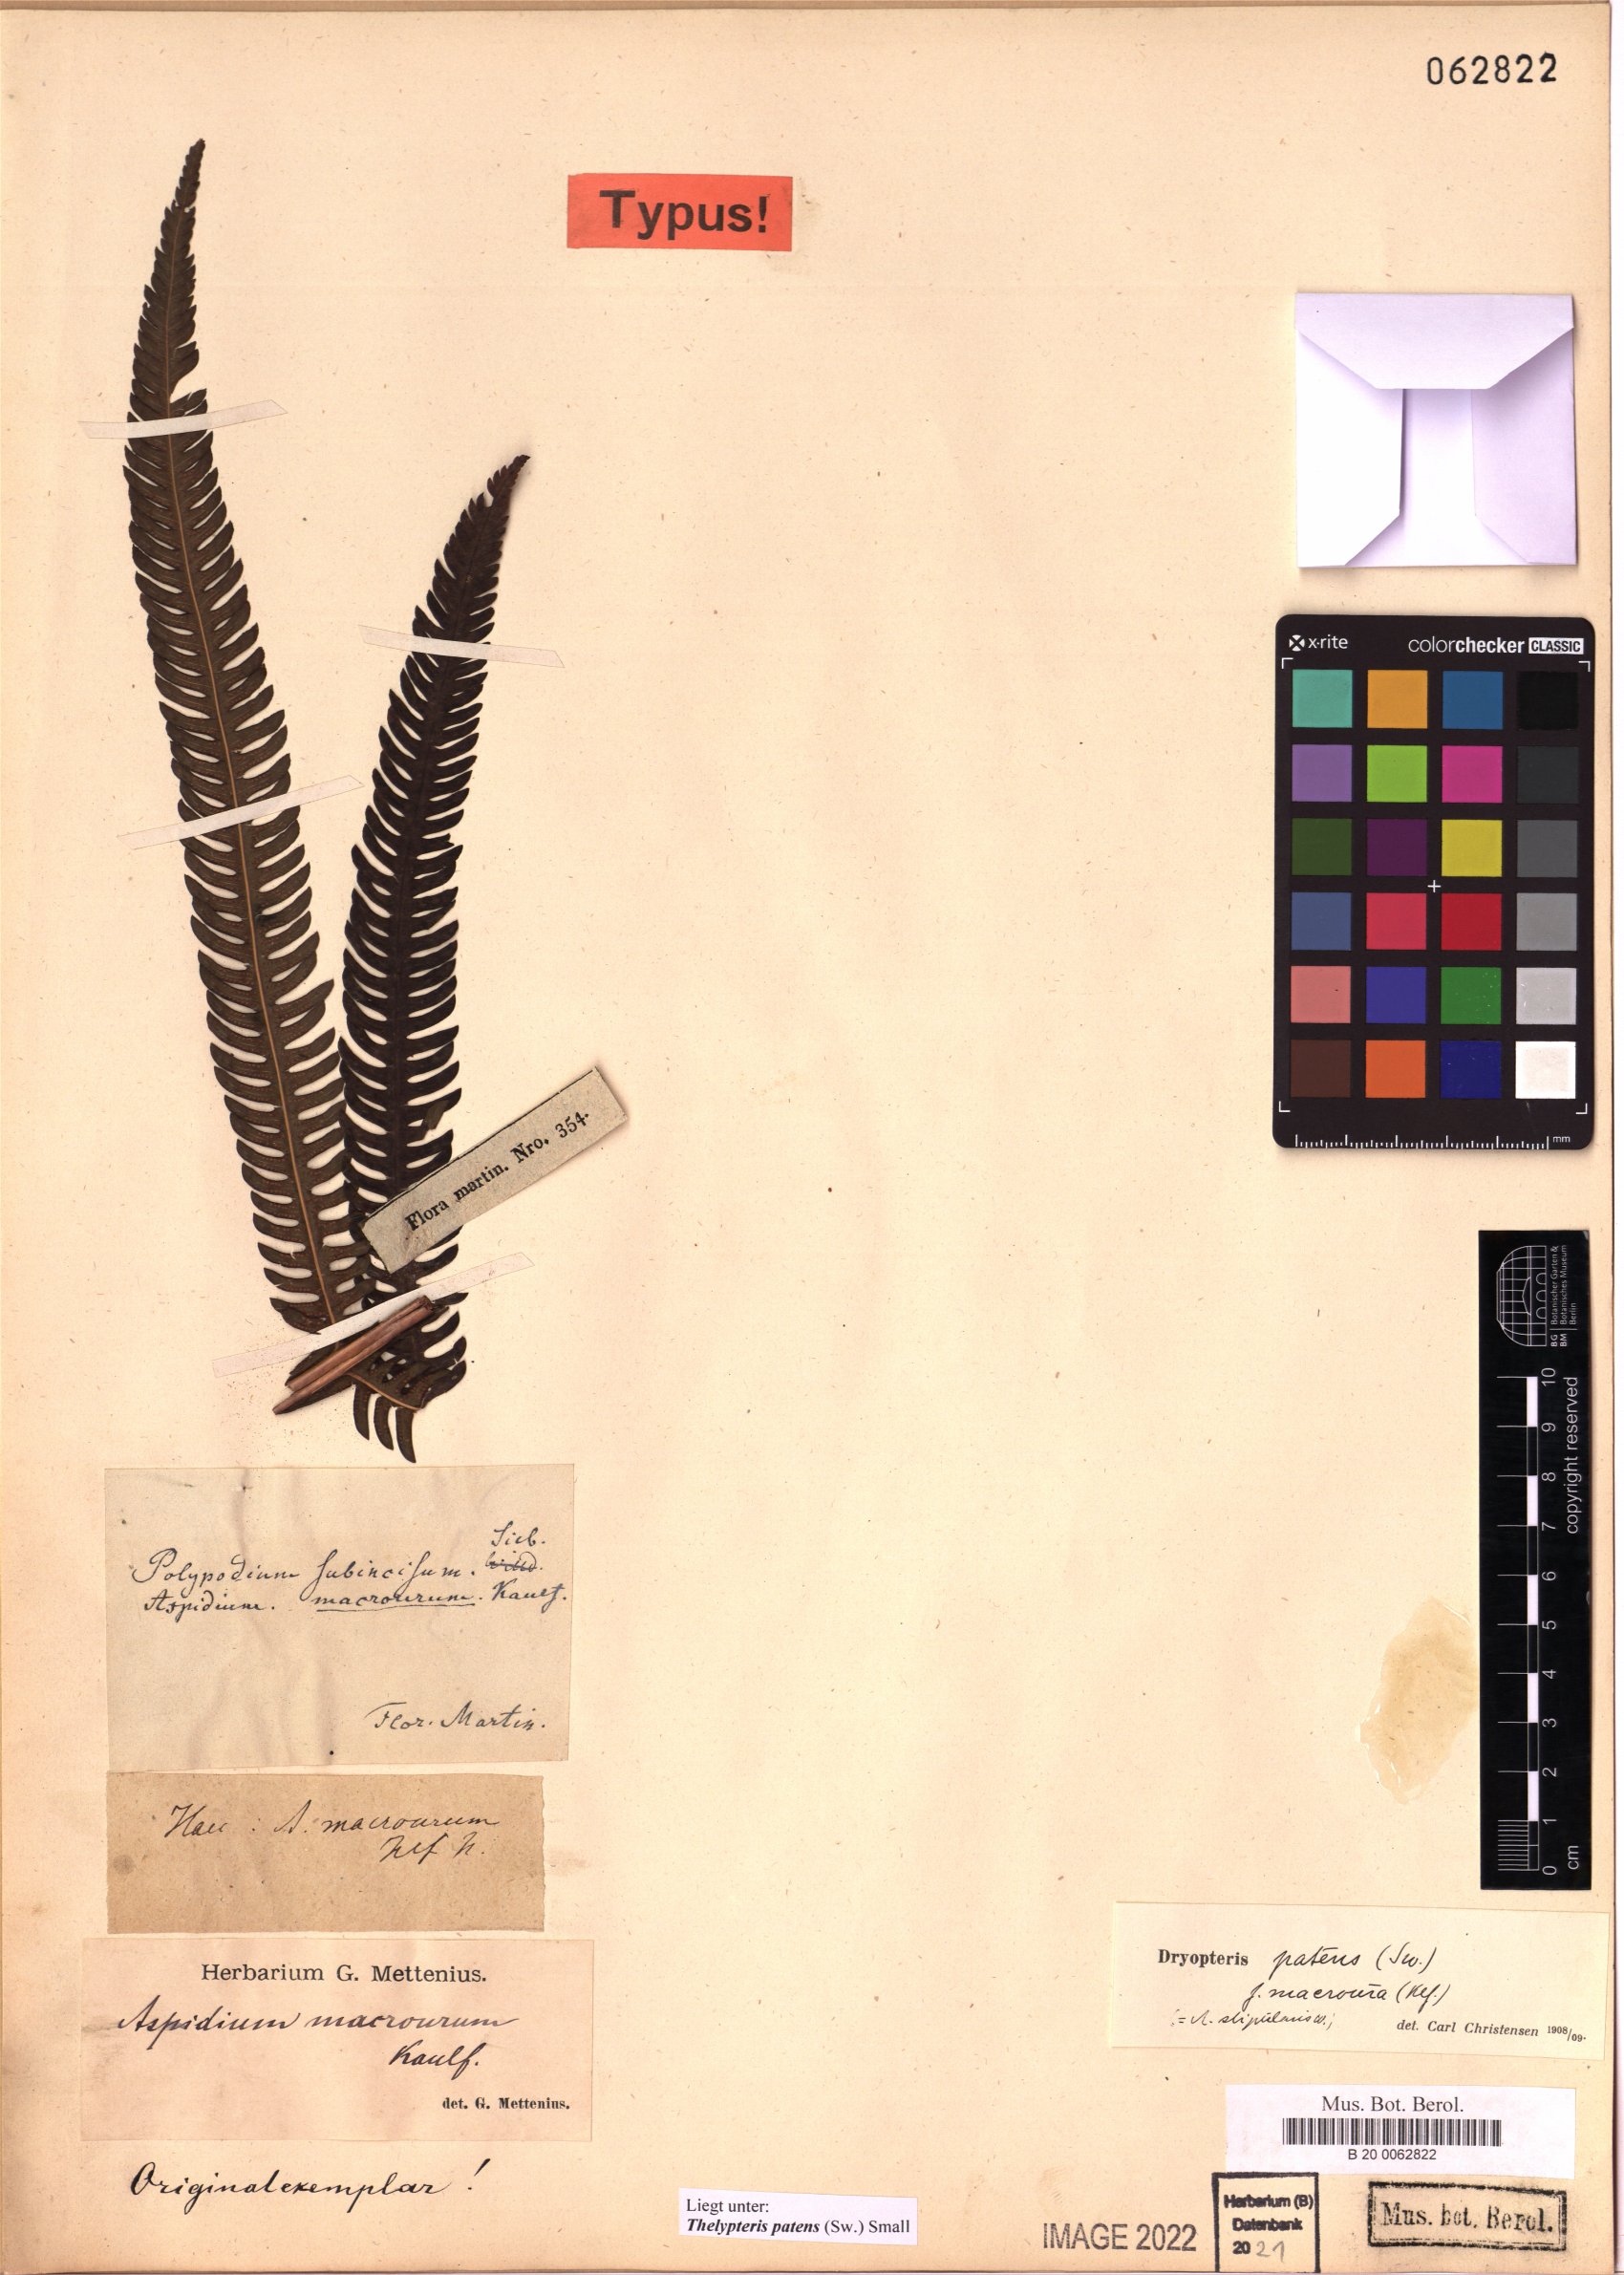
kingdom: Plantae
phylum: Tracheophyta
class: Polypodiopsida
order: Polypodiales
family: Thelypteridaceae
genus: Pelazoneuron
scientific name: Pelazoneuron patens
